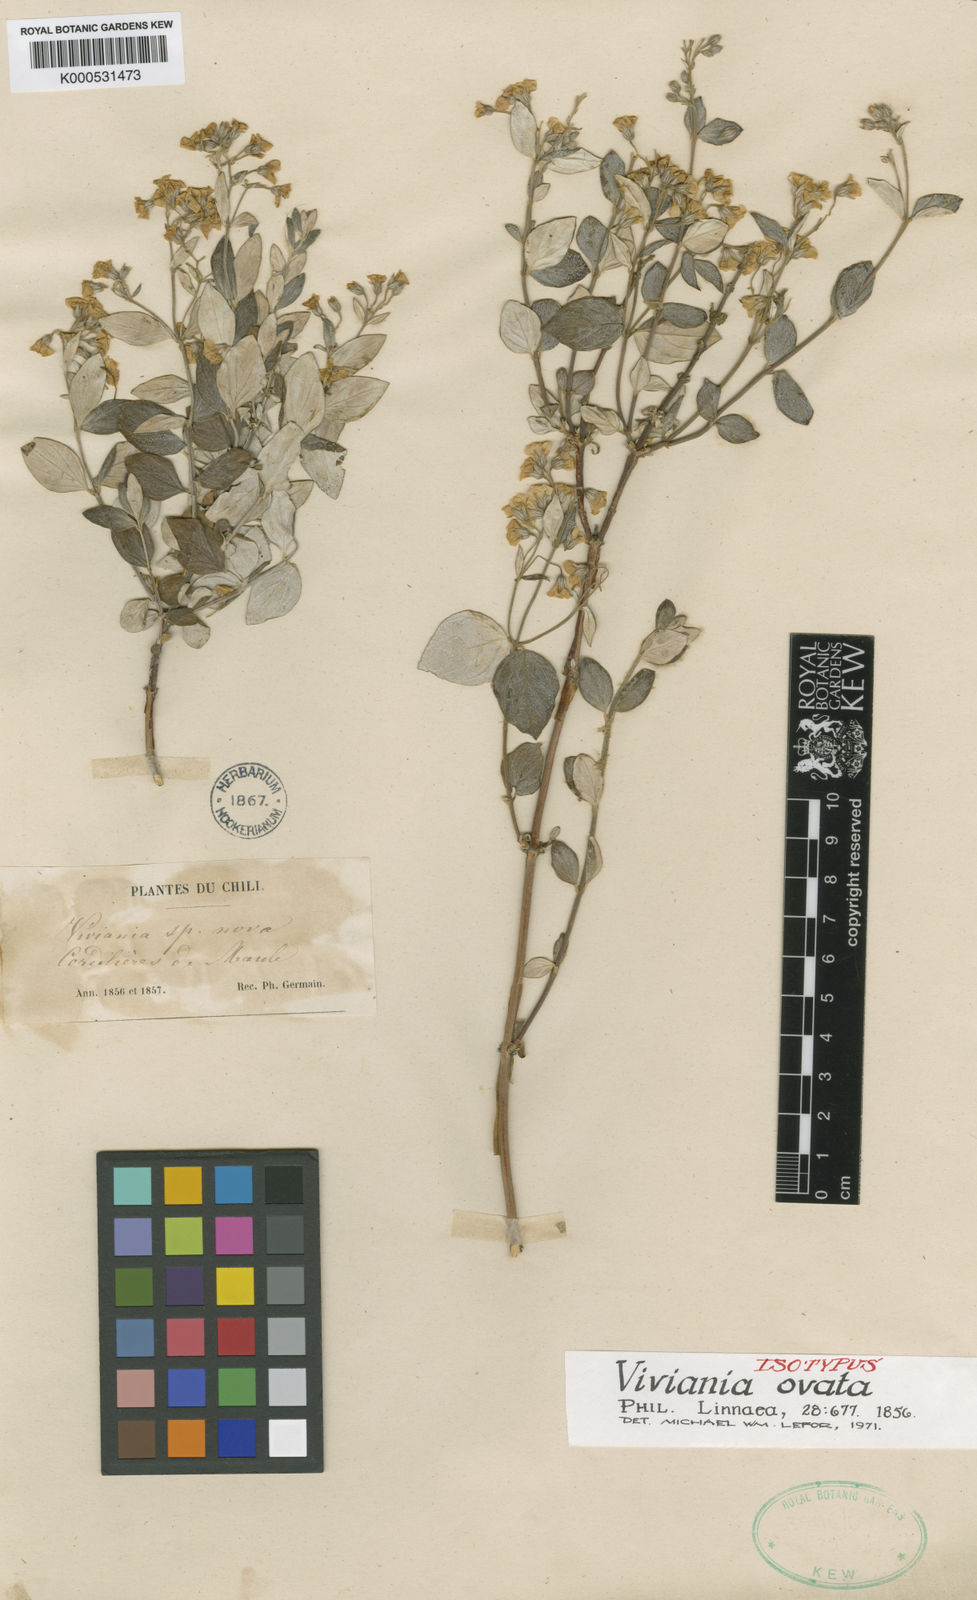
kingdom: Plantae
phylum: Tracheophyta
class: Magnoliopsida
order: Geraniales
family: Vivianiaceae
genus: Viviania
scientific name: Viviania ovata
